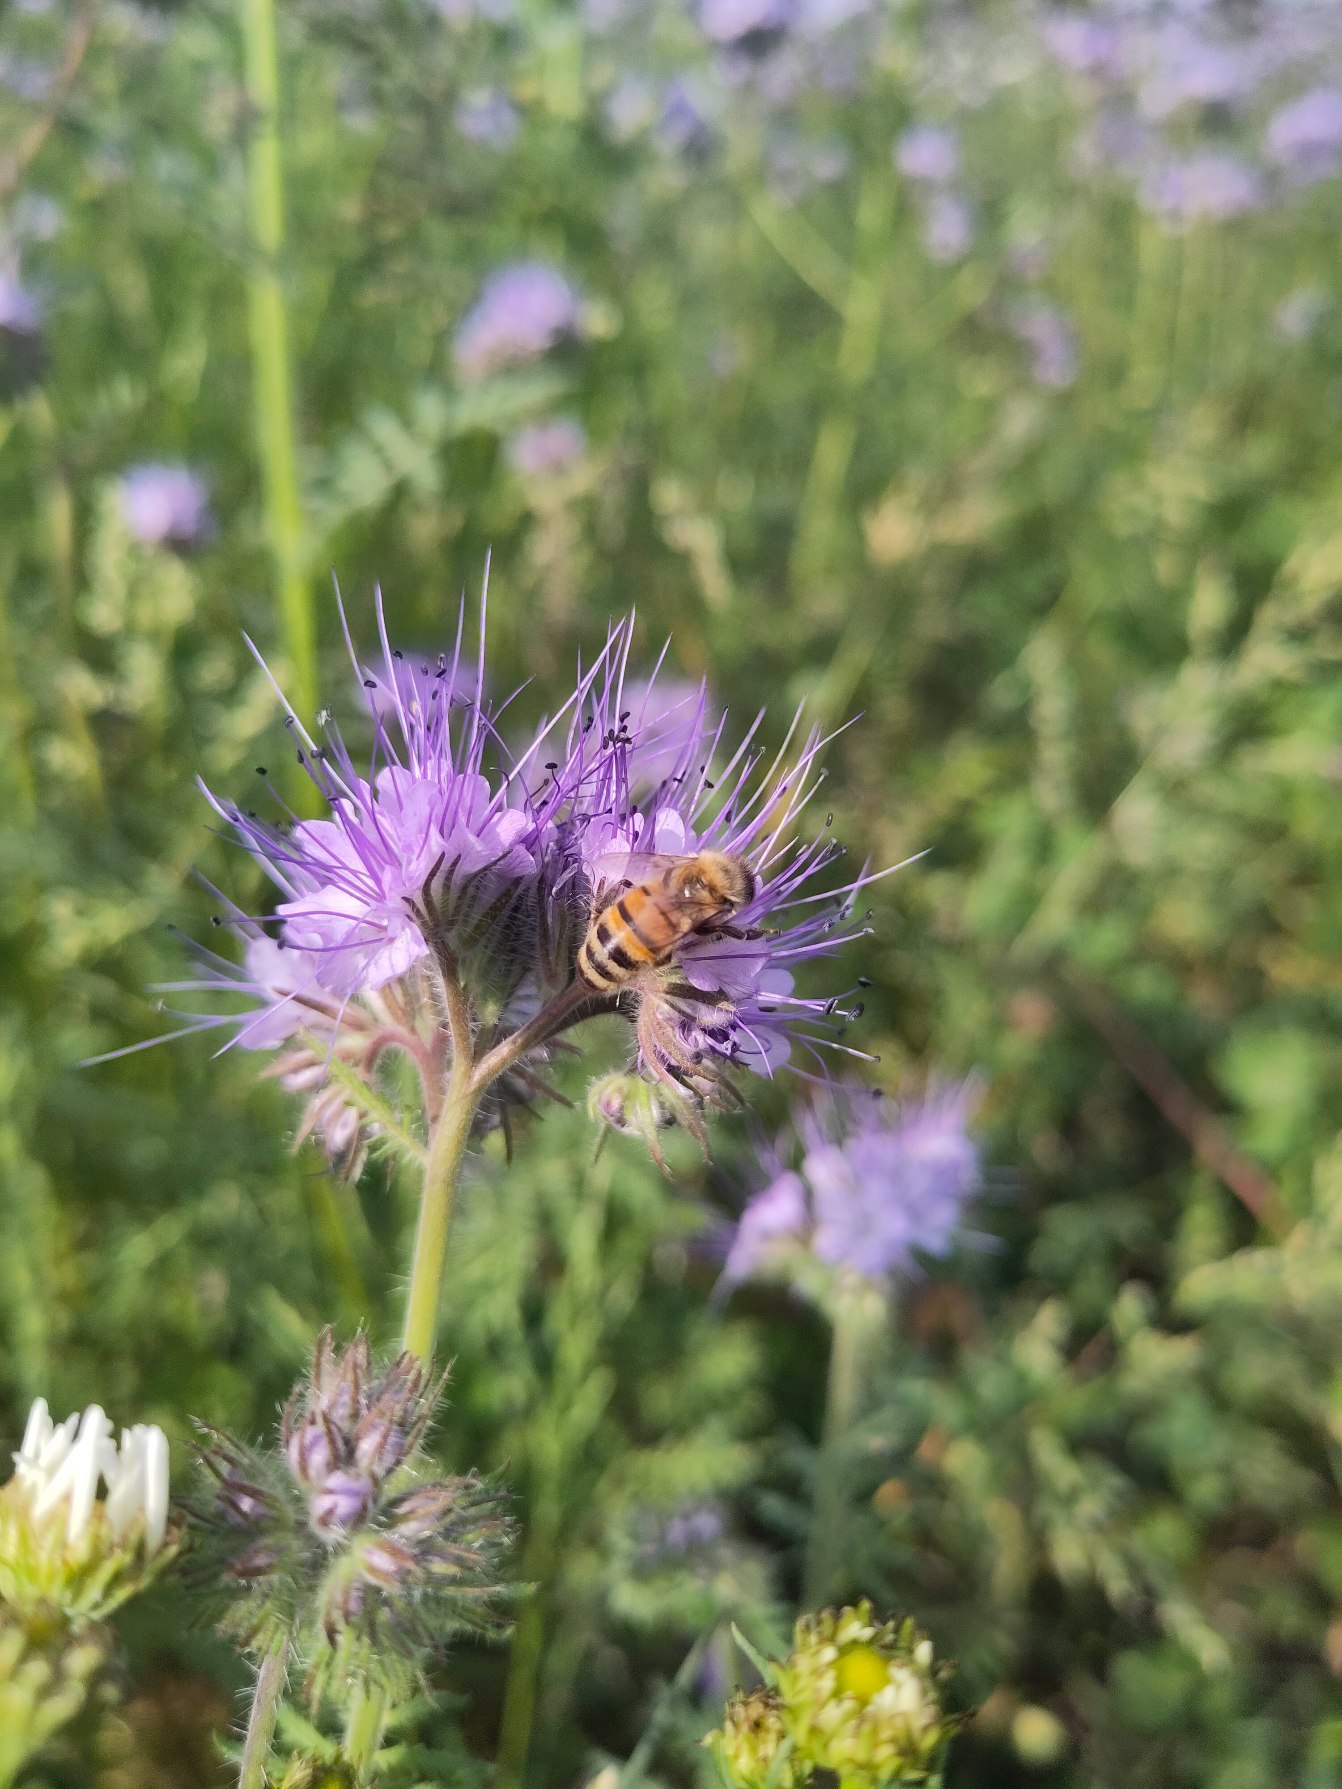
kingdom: Animalia
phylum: Arthropoda
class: Insecta
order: Hymenoptera
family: Apidae
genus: Apis
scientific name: Apis mellifera
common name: Honningbi
